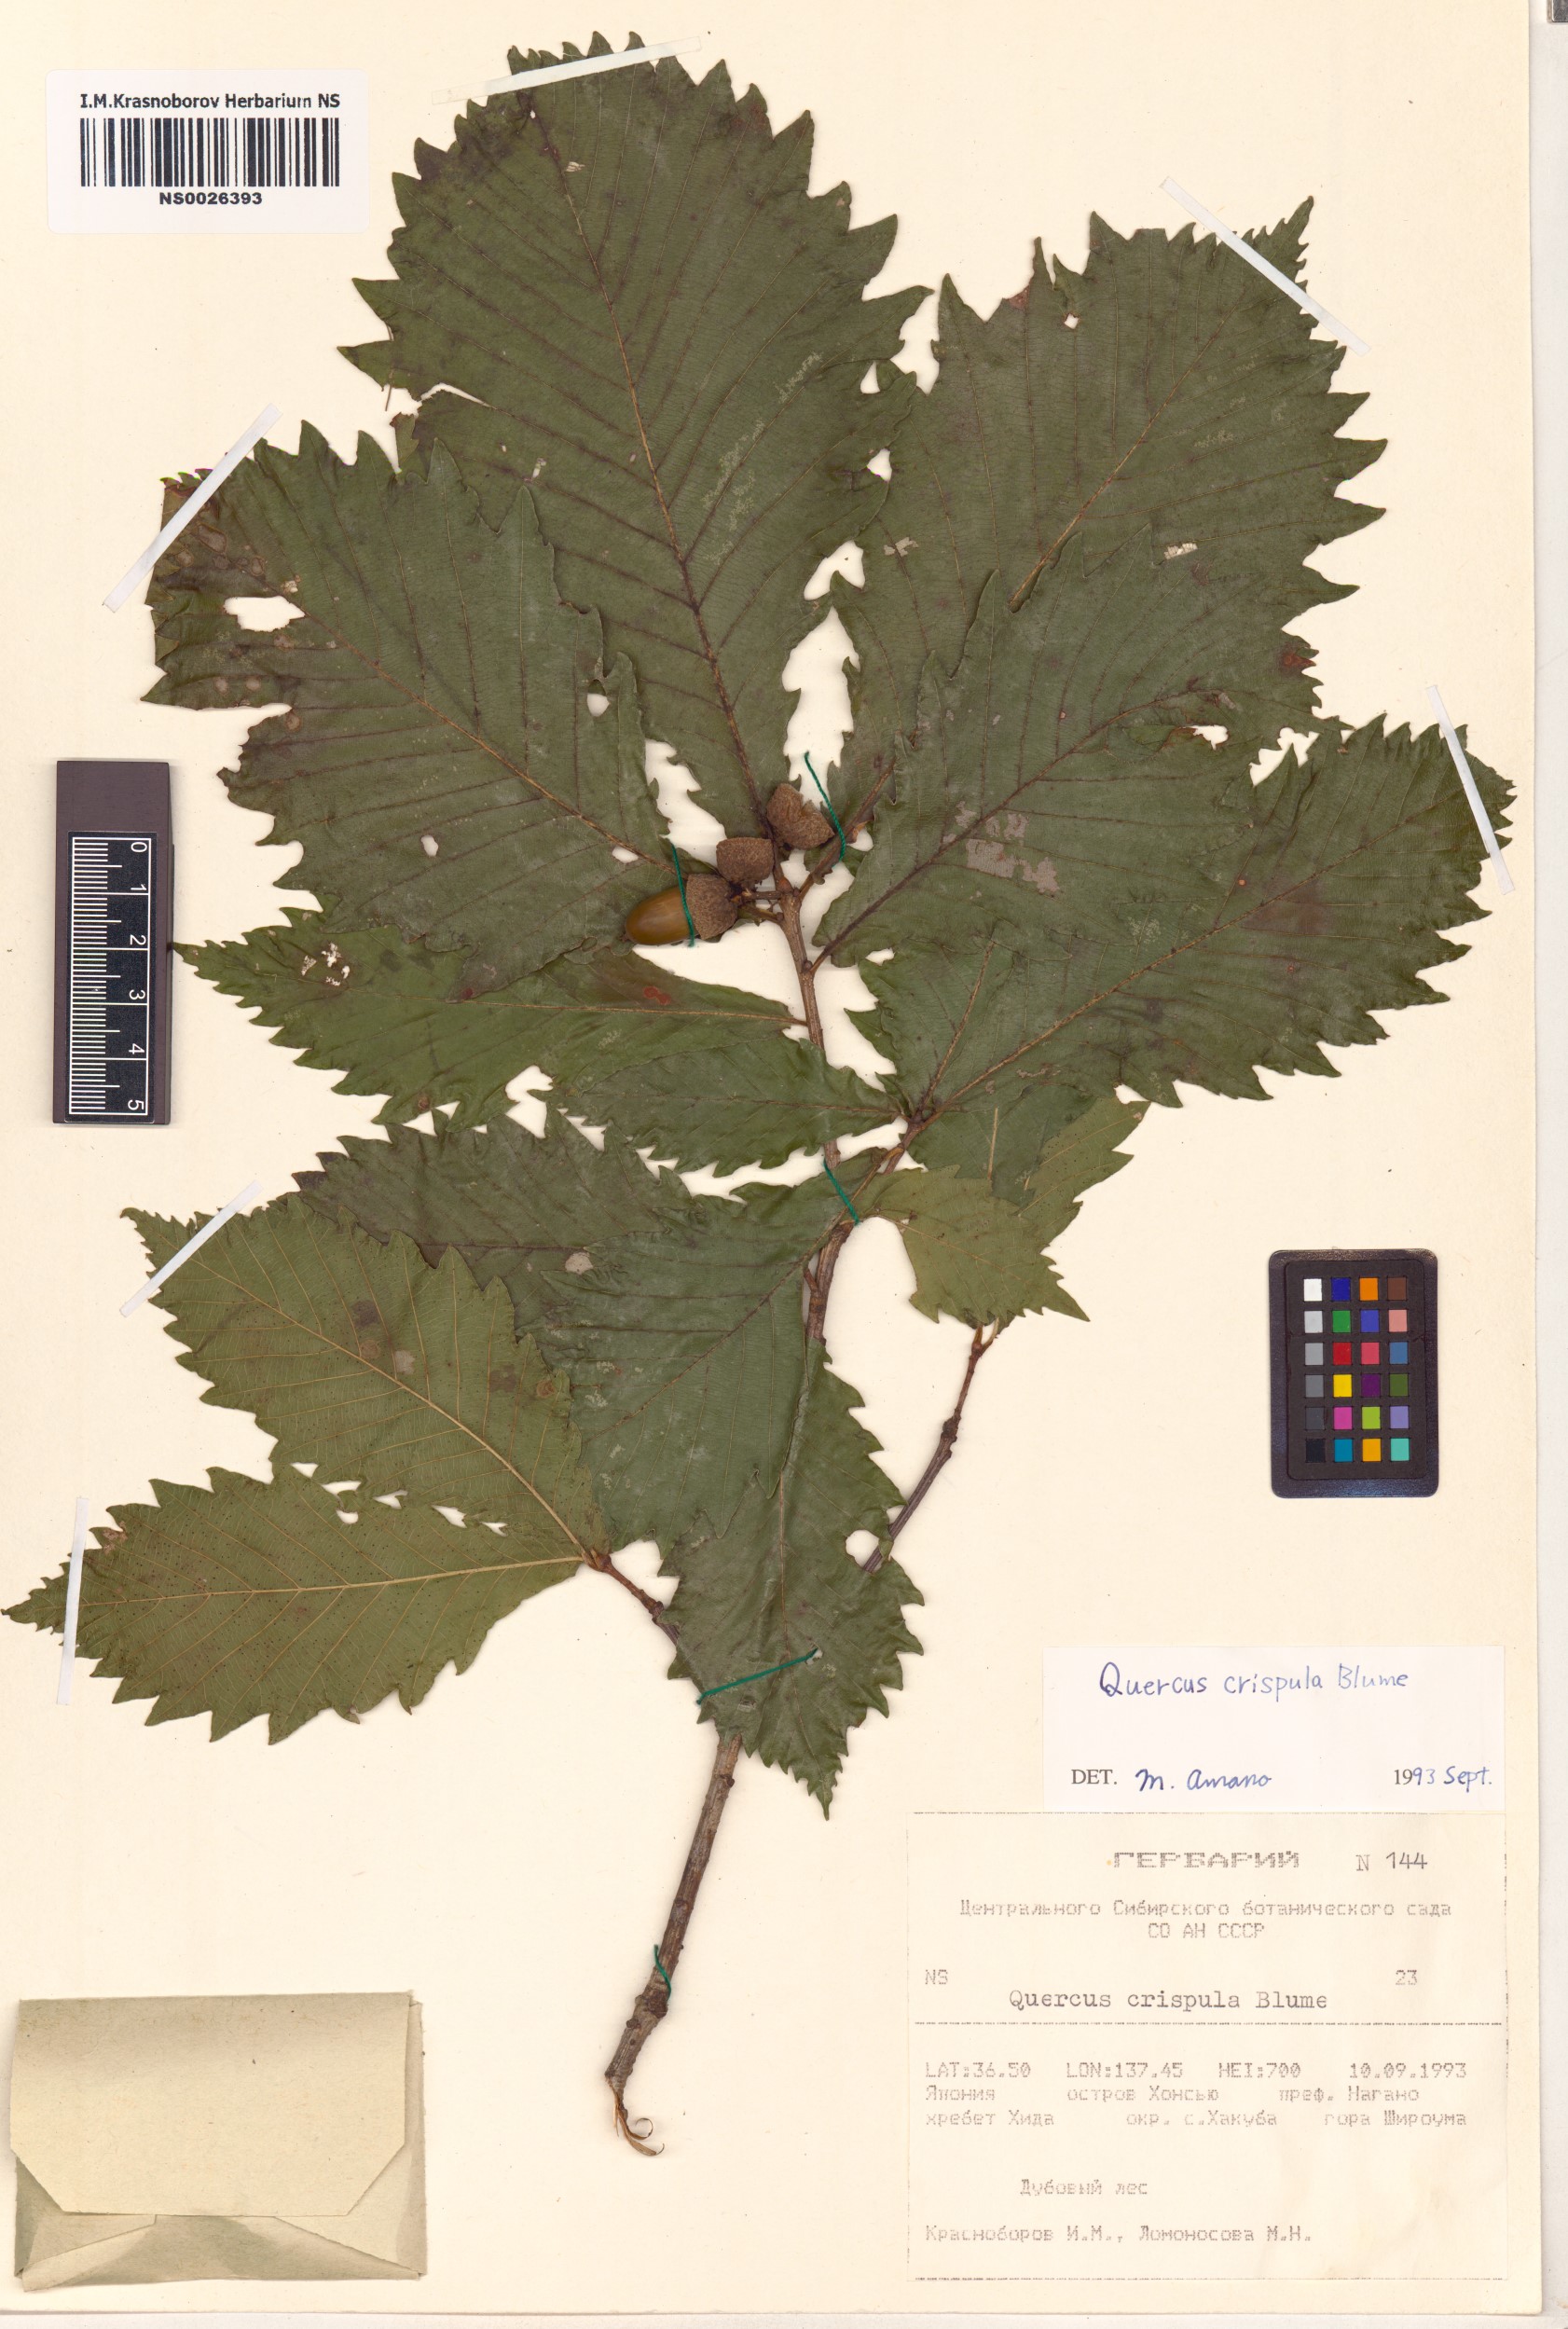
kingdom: Plantae
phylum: Tracheophyta
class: Magnoliopsida
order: Fagales
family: Fagaceae
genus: Quercus
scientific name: Quercus mongolica
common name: Mongolian oak
